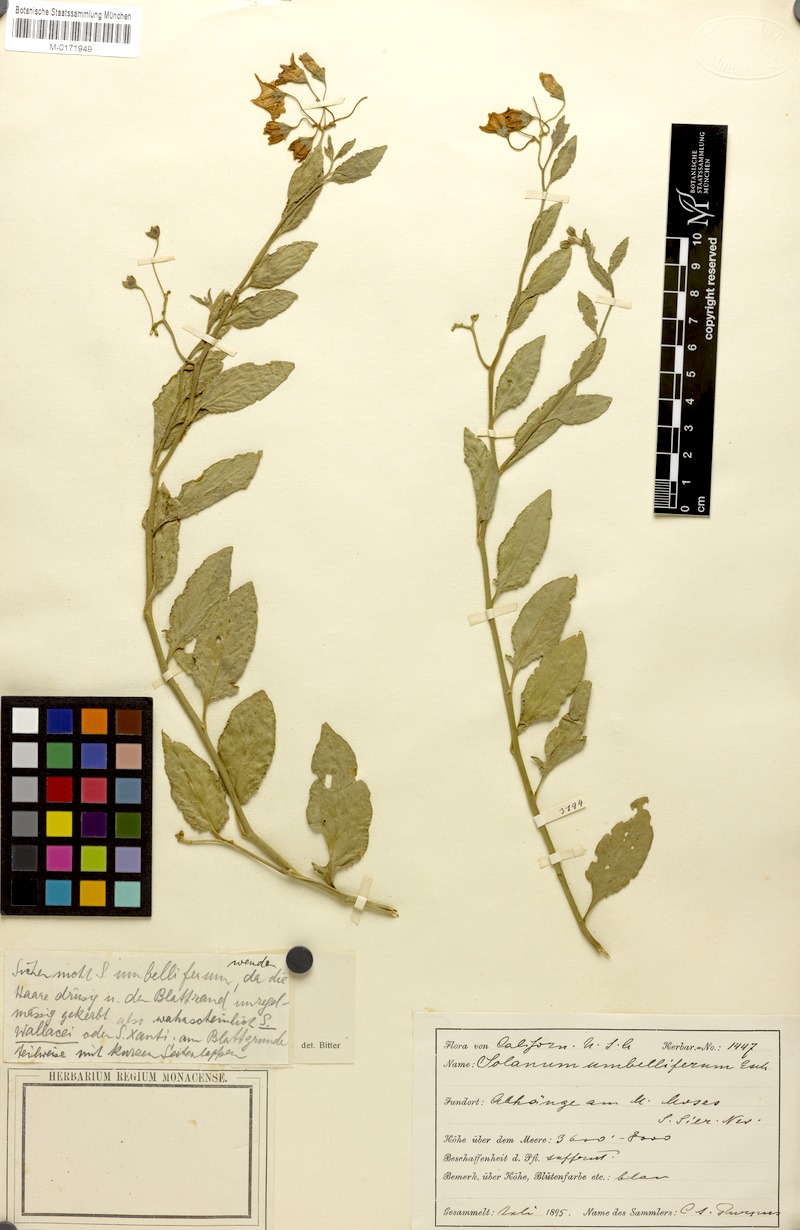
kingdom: Plantae
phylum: Tracheophyta
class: Magnoliopsida
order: Solanales
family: Solanaceae
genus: Solanum
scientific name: Solanum umbelliferum
